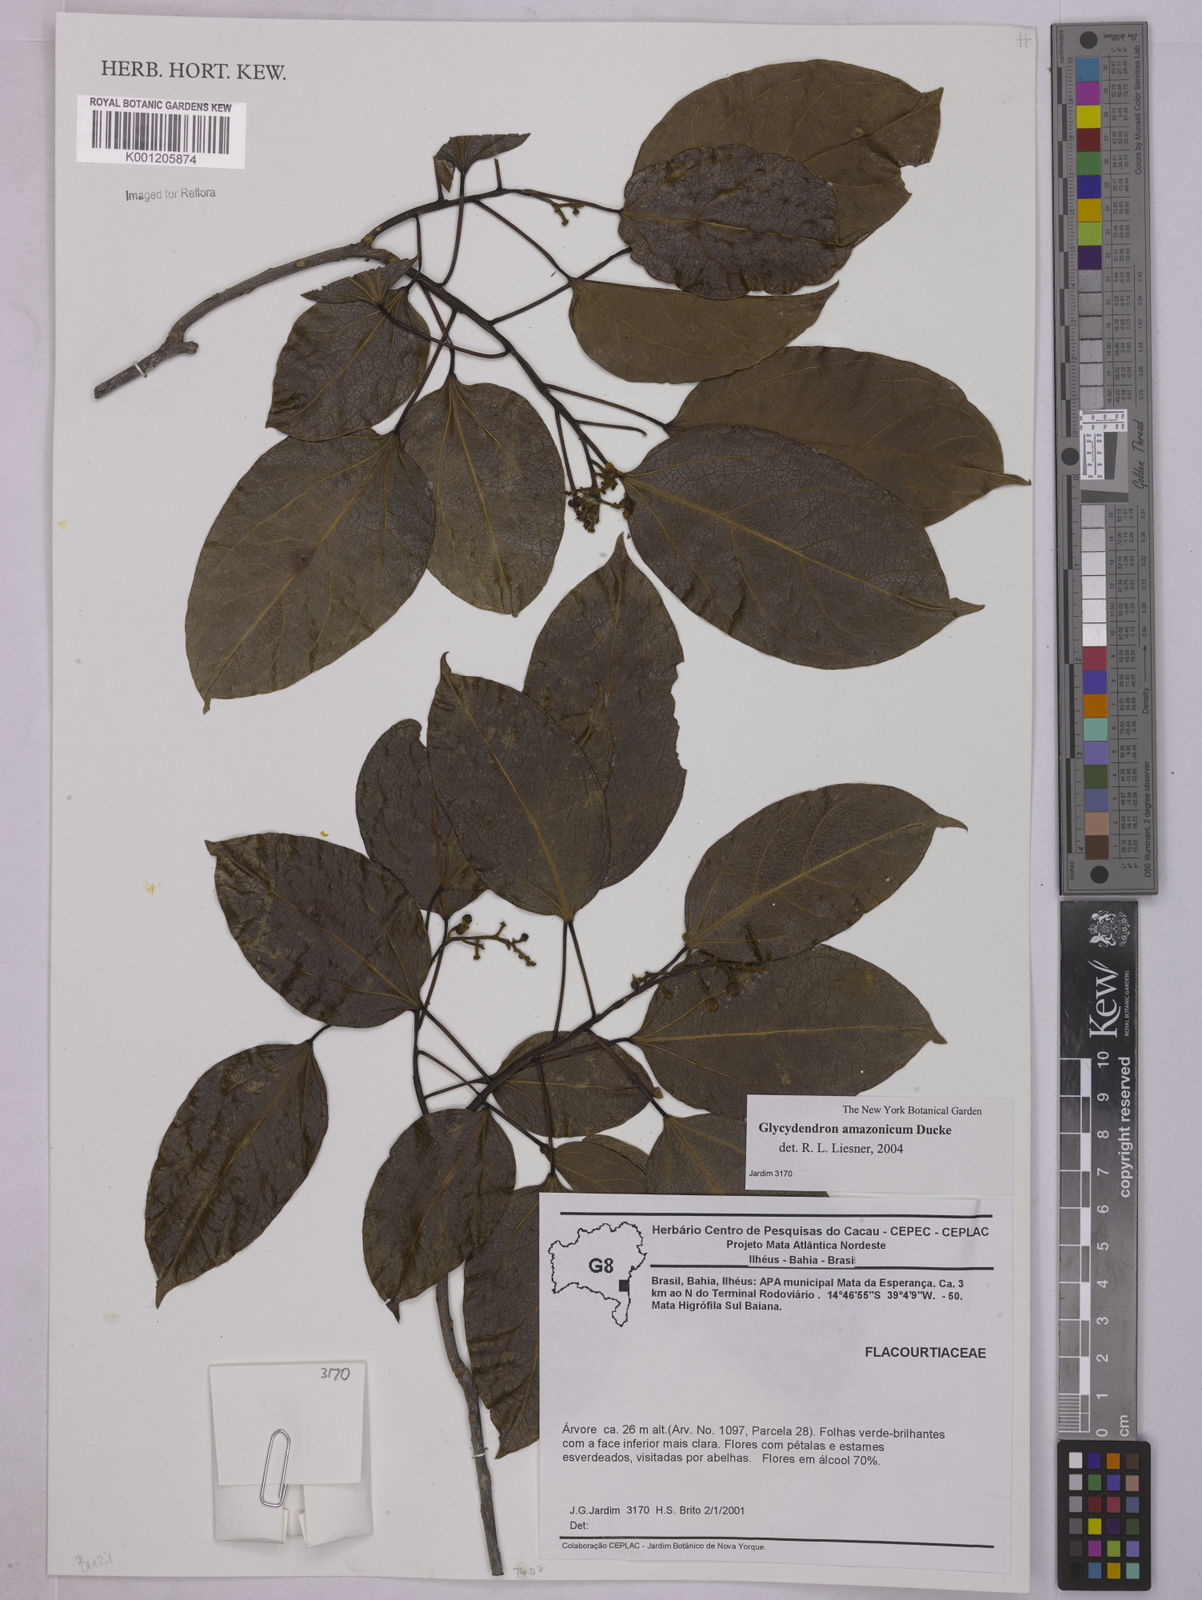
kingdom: Plantae
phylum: Tracheophyta
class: Magnoliopsida
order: Malpighiales
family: Euphorbiaceae
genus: Glycydendron
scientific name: Glycydendron amazonicum
